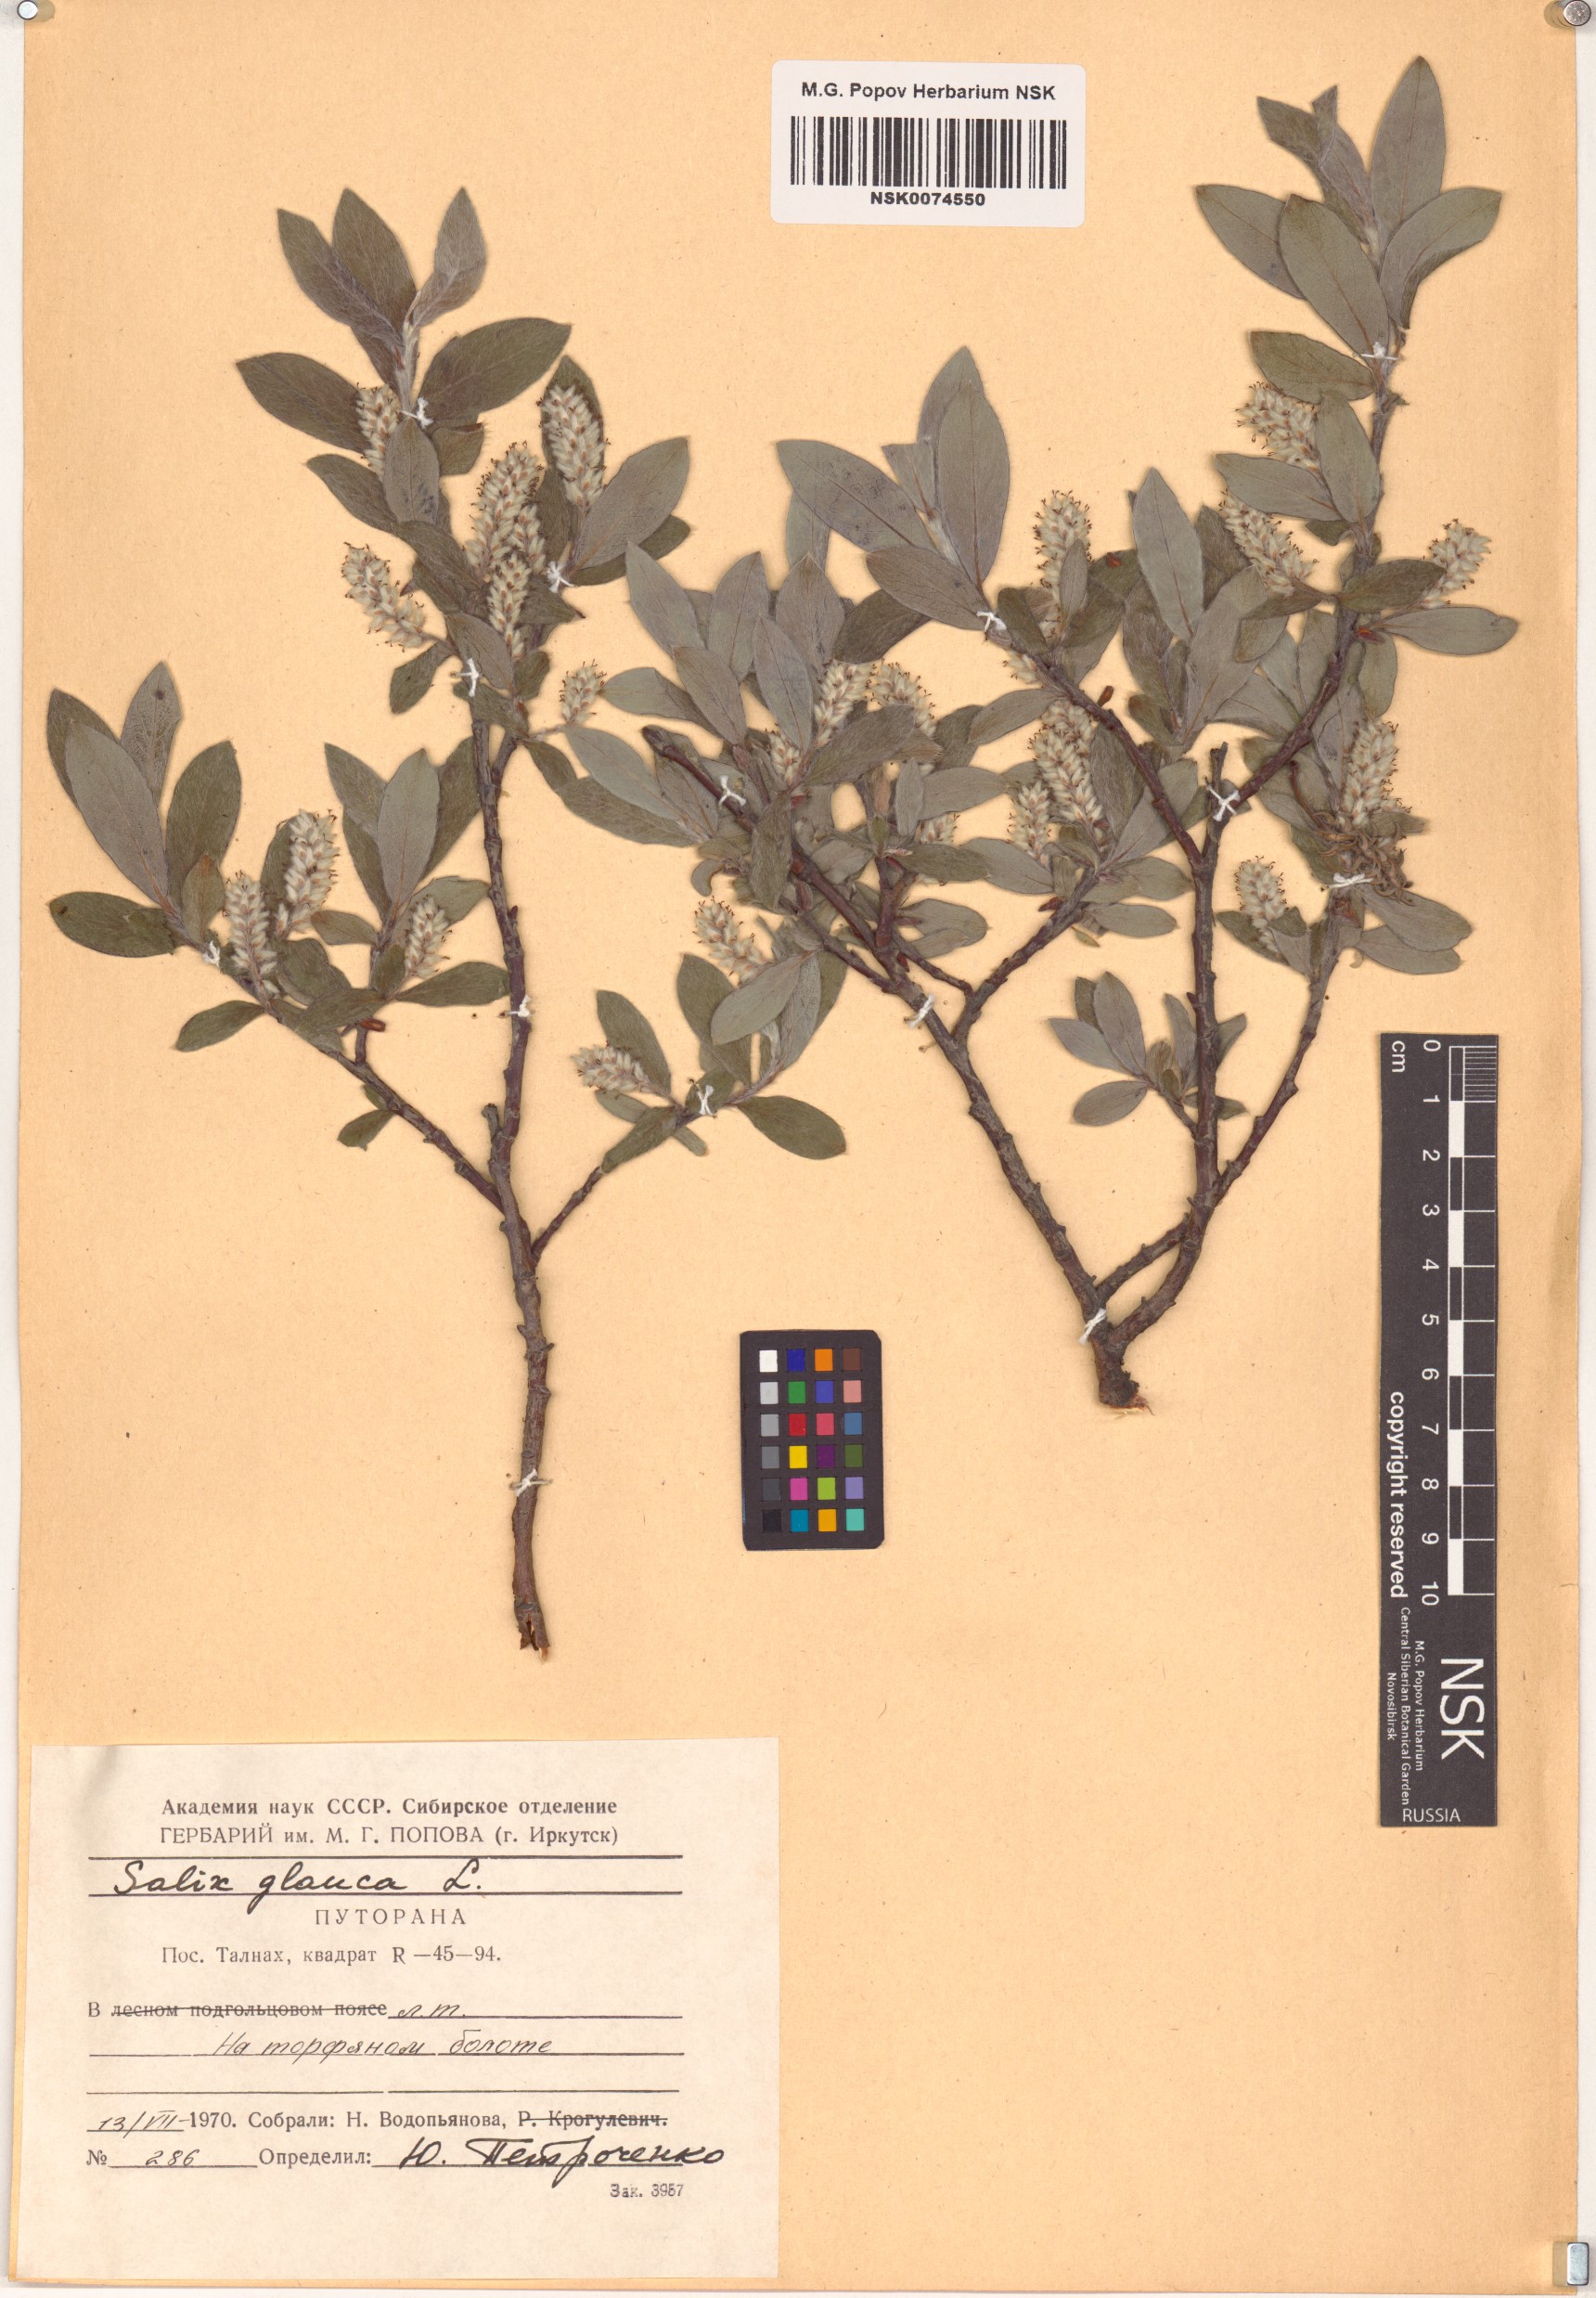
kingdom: Plantae
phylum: Tracheophyta
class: Magnoliopsida
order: Malpighiales
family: Salicaceae
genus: Salix
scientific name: Salix glauca
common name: Glaucous willow
